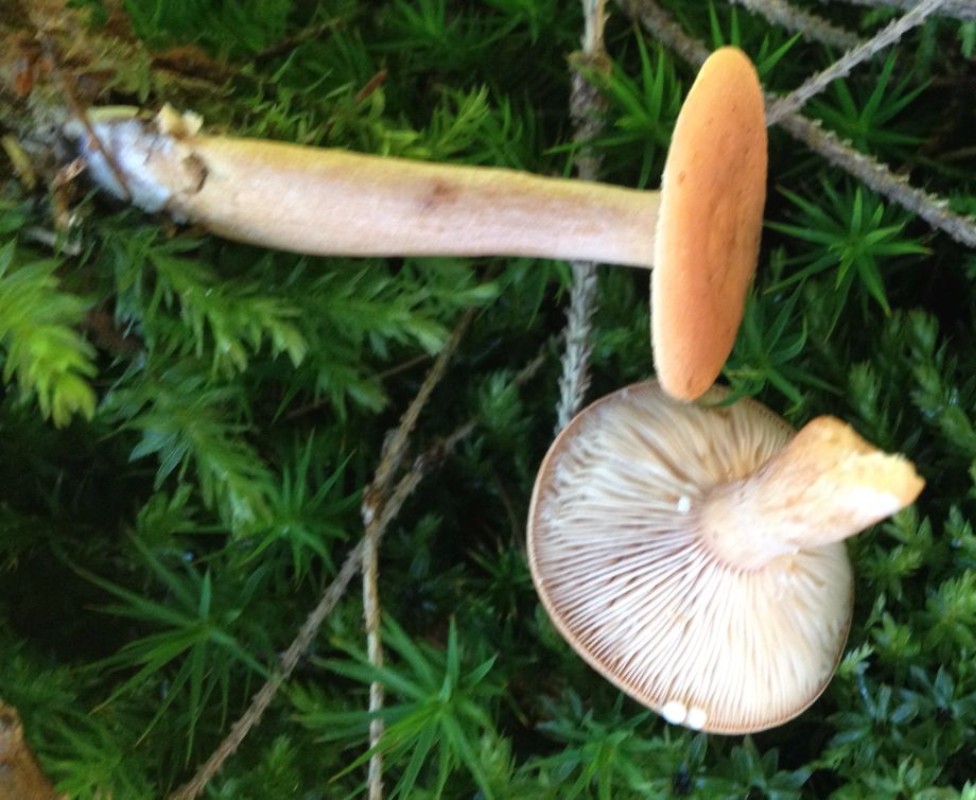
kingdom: Fungi
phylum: Basidiomycota
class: Agaricomycetes
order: Russulales
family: Russulaceae
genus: Lactarius
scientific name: Lactarius tabidus
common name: rynket mælkehat
